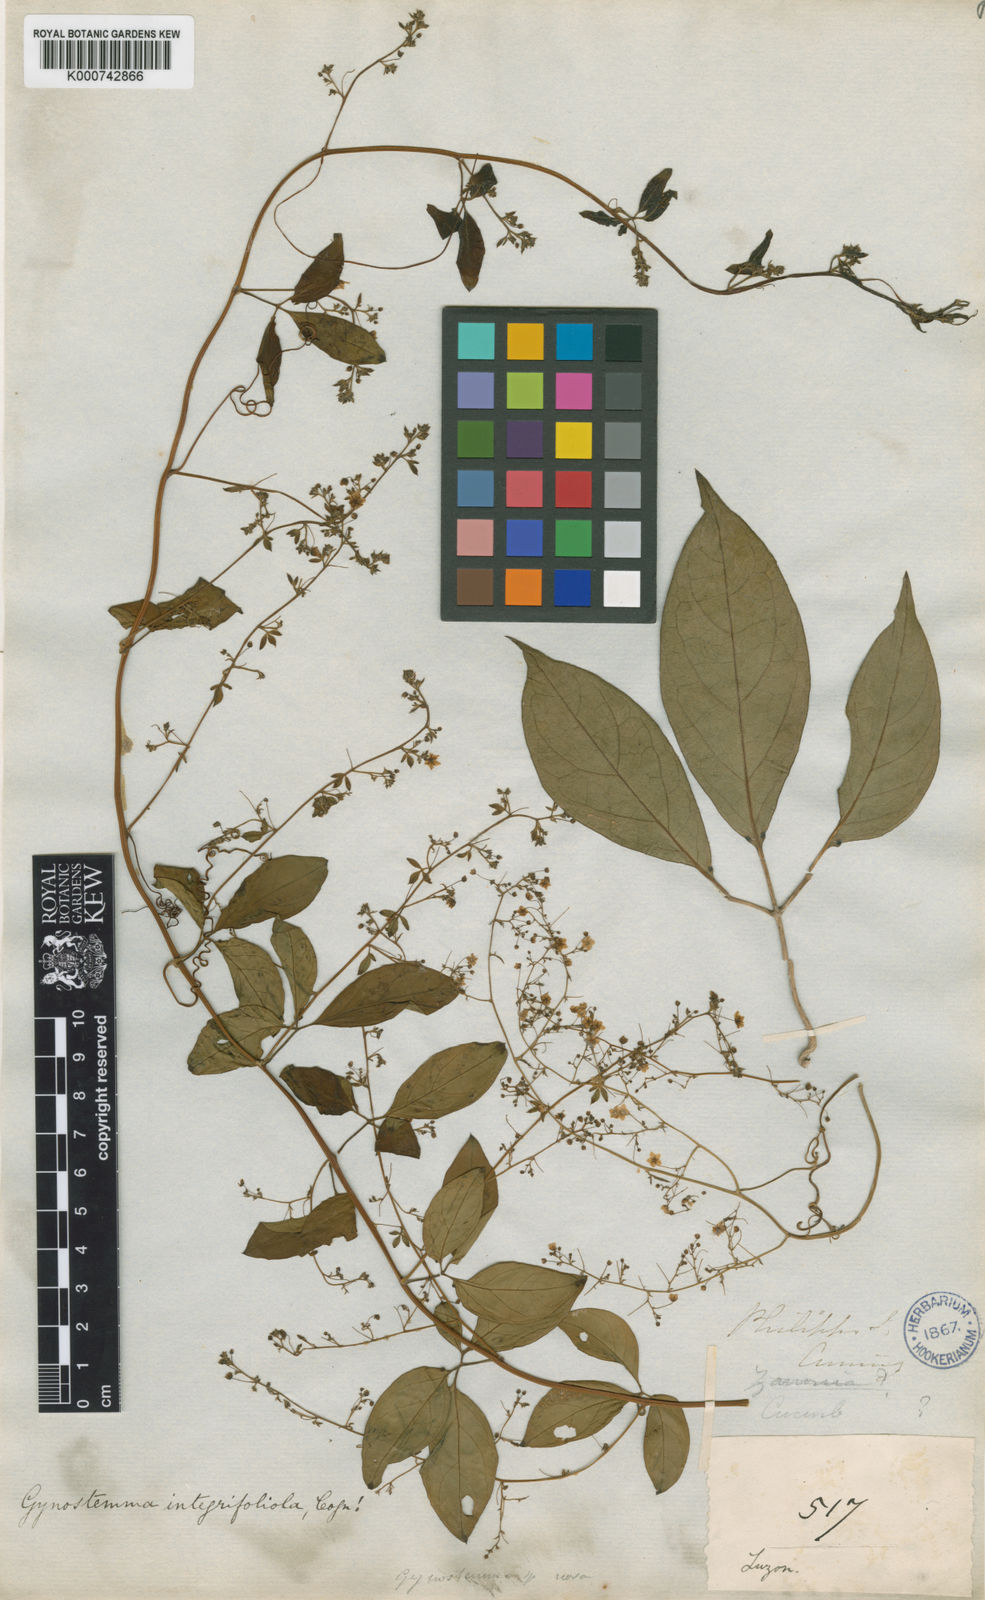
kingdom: Plantae
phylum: Tracheophyta
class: Magnoliopsida
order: Cucurbitales
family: Cucurbitaceae
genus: Neoalsomitra
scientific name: Neoalsomitra
